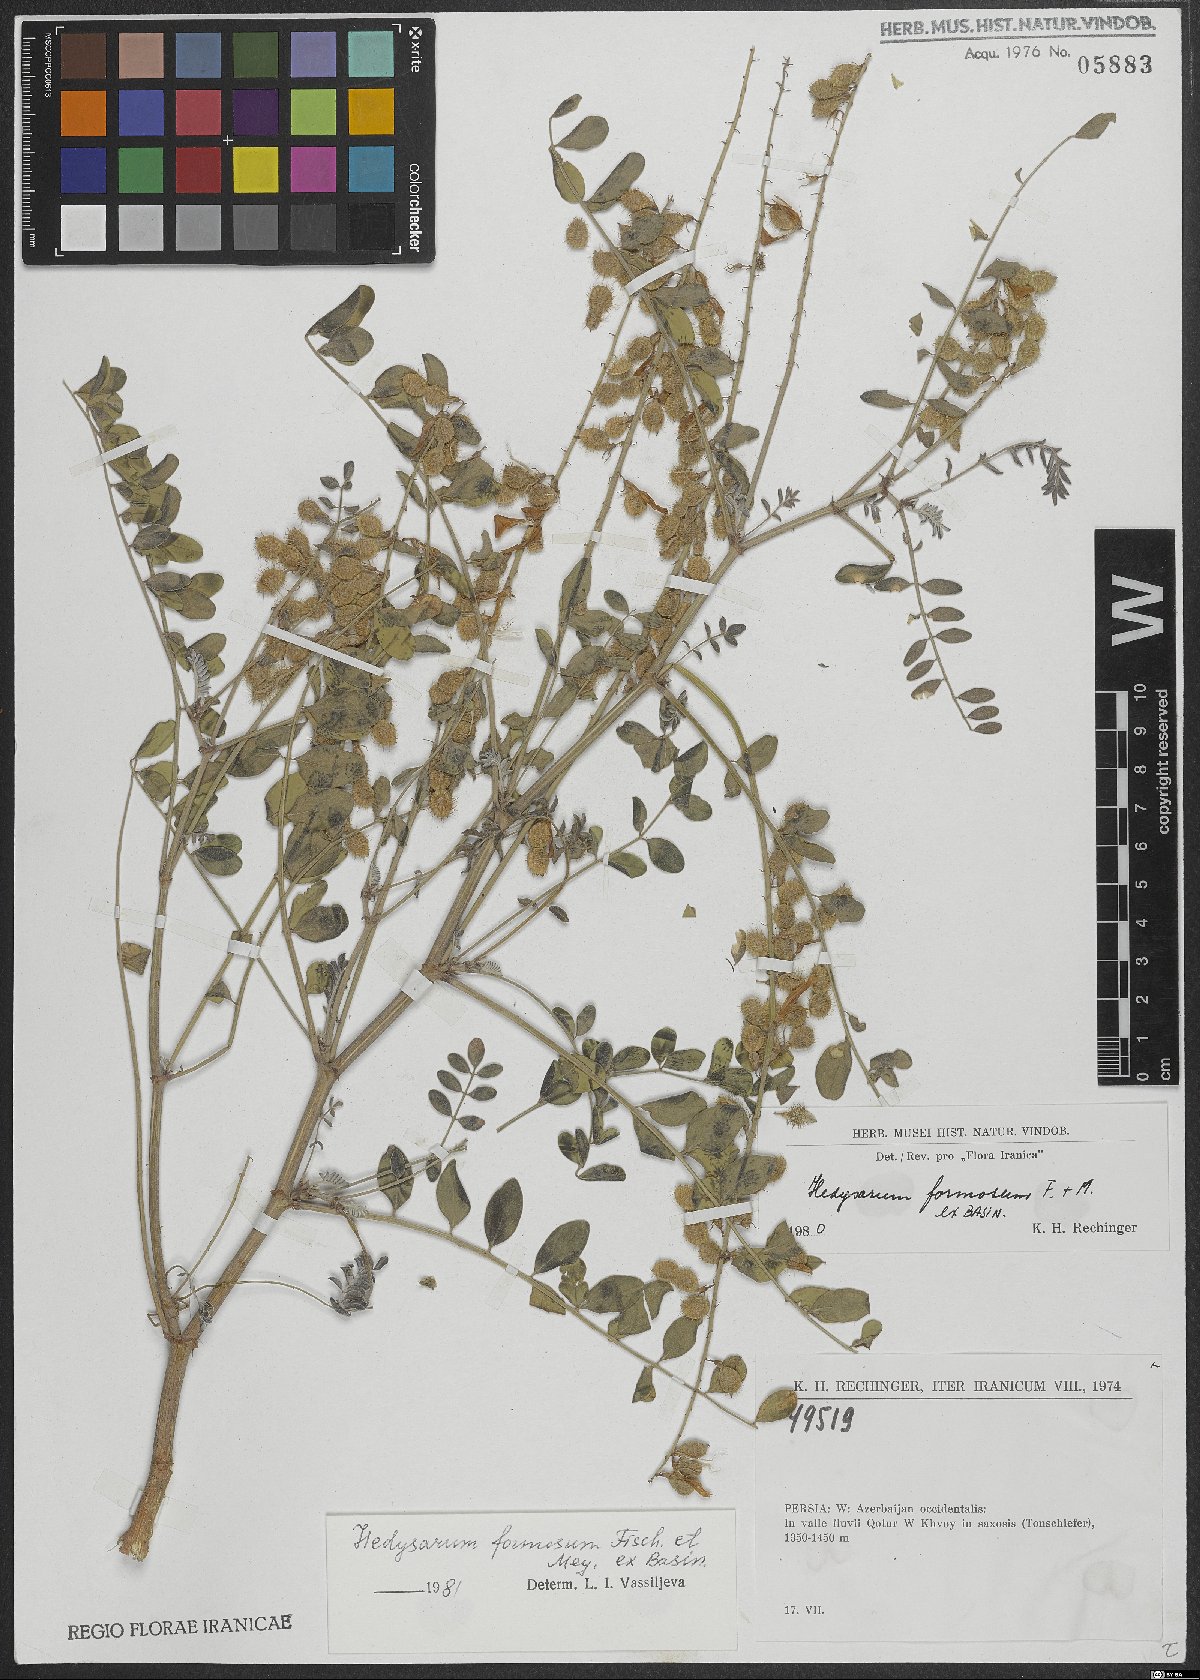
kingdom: Plantae
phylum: Tracheophyta
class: Magnoliopsida
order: Fabales
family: Fabaceae
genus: Hedysarum
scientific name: Hedysarum formosum
